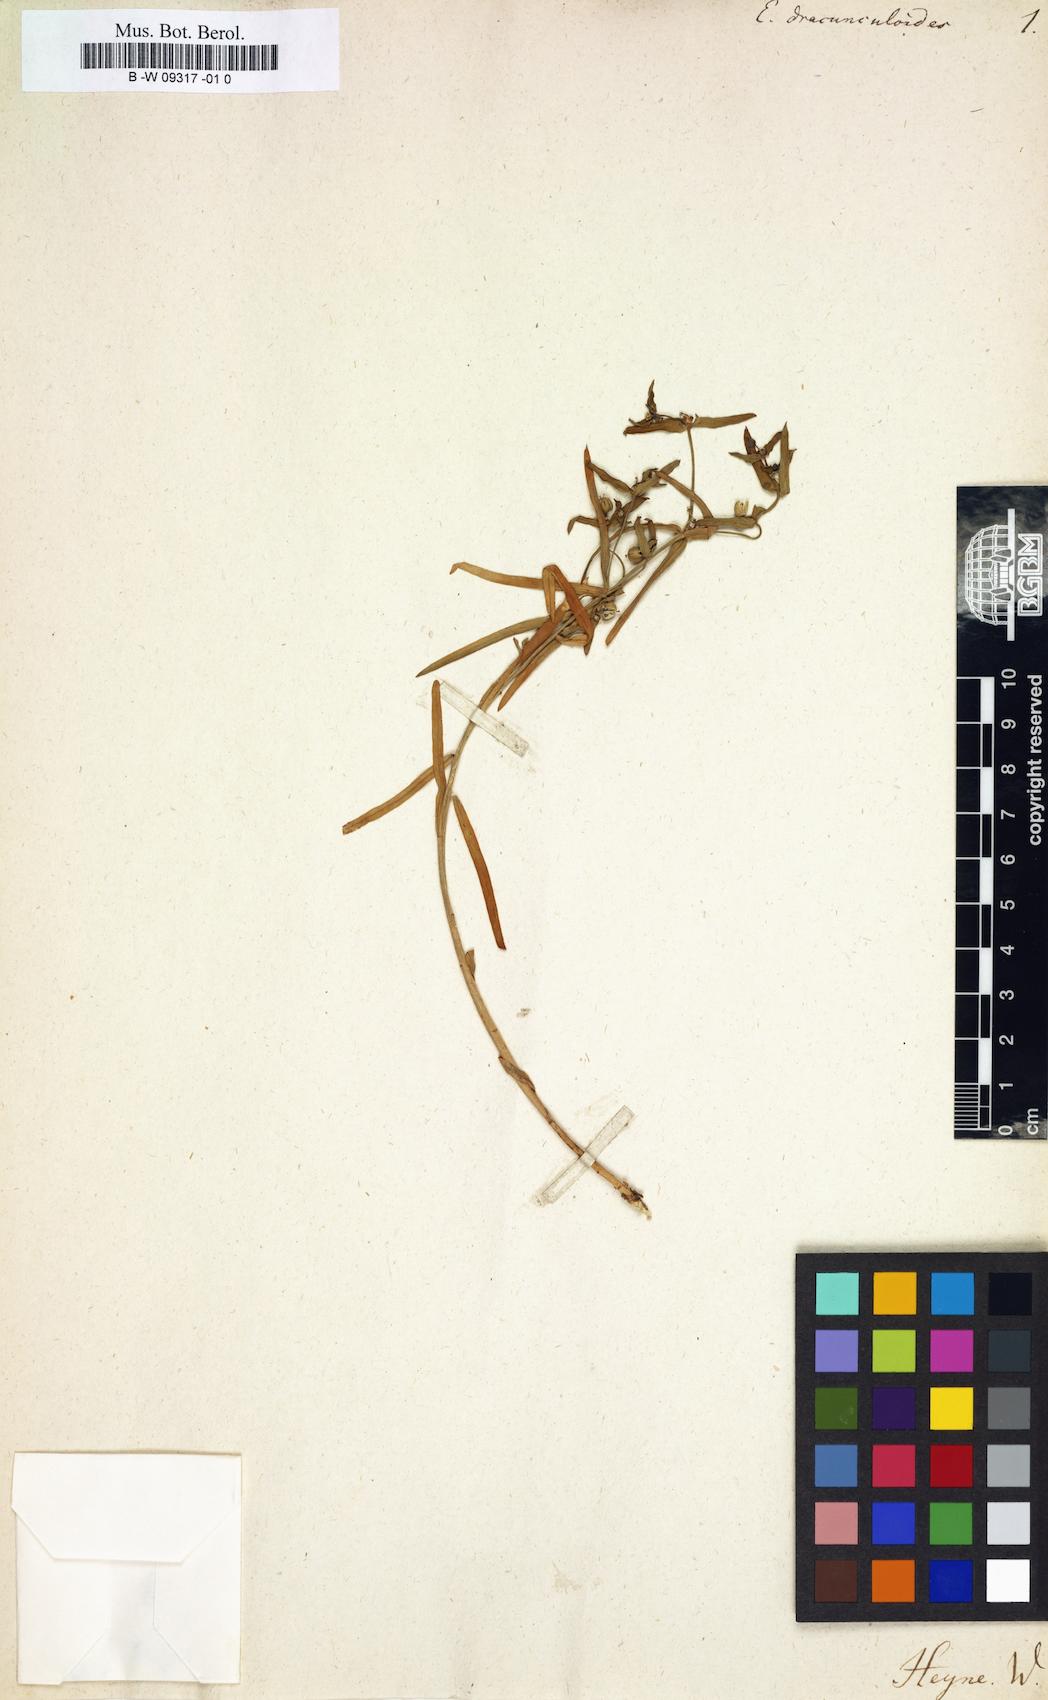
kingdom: Plantae
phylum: Tracheophyta
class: Magnoliopsida
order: Malpighiales
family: Euphorbiaceae
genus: Euphorbia
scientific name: Euphorbia dracunculoides
